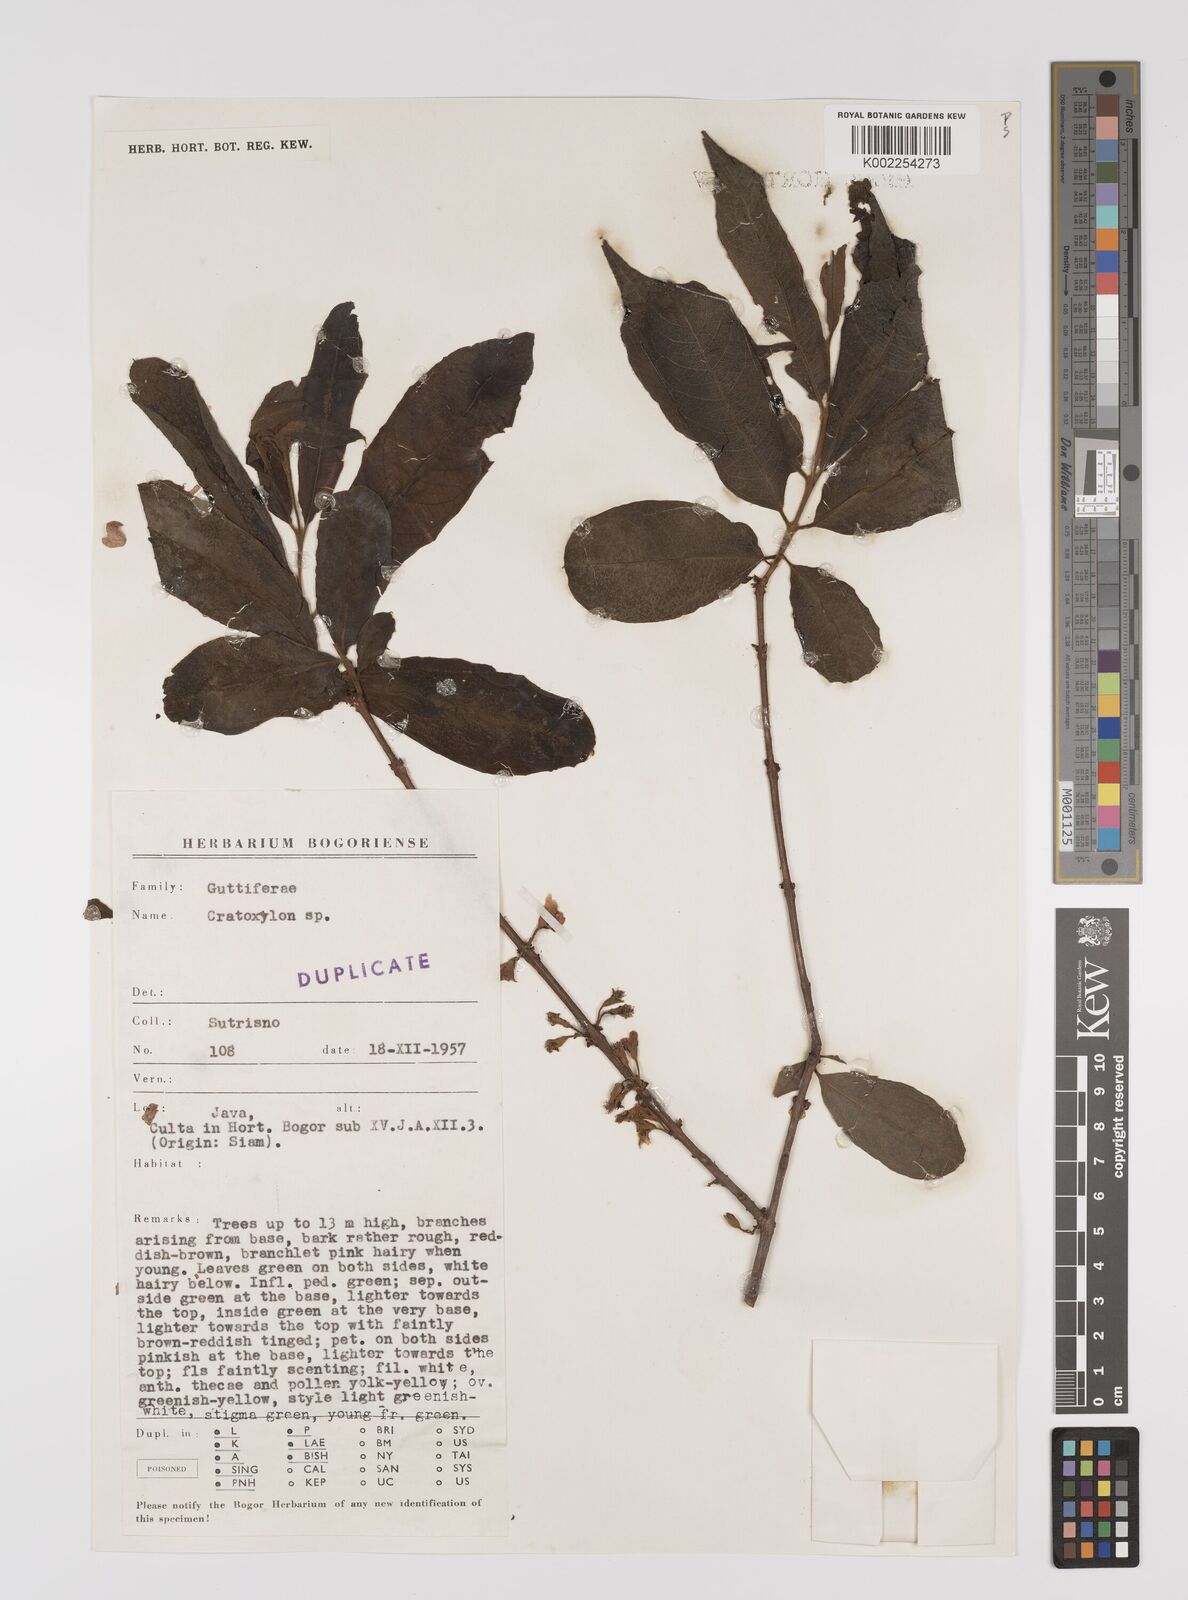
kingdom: Plantae
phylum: Tracheophyta
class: Magnoliopsida
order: Malpighiales
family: Hypericaceae
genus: Cratoxylum
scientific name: Cratoxylum
